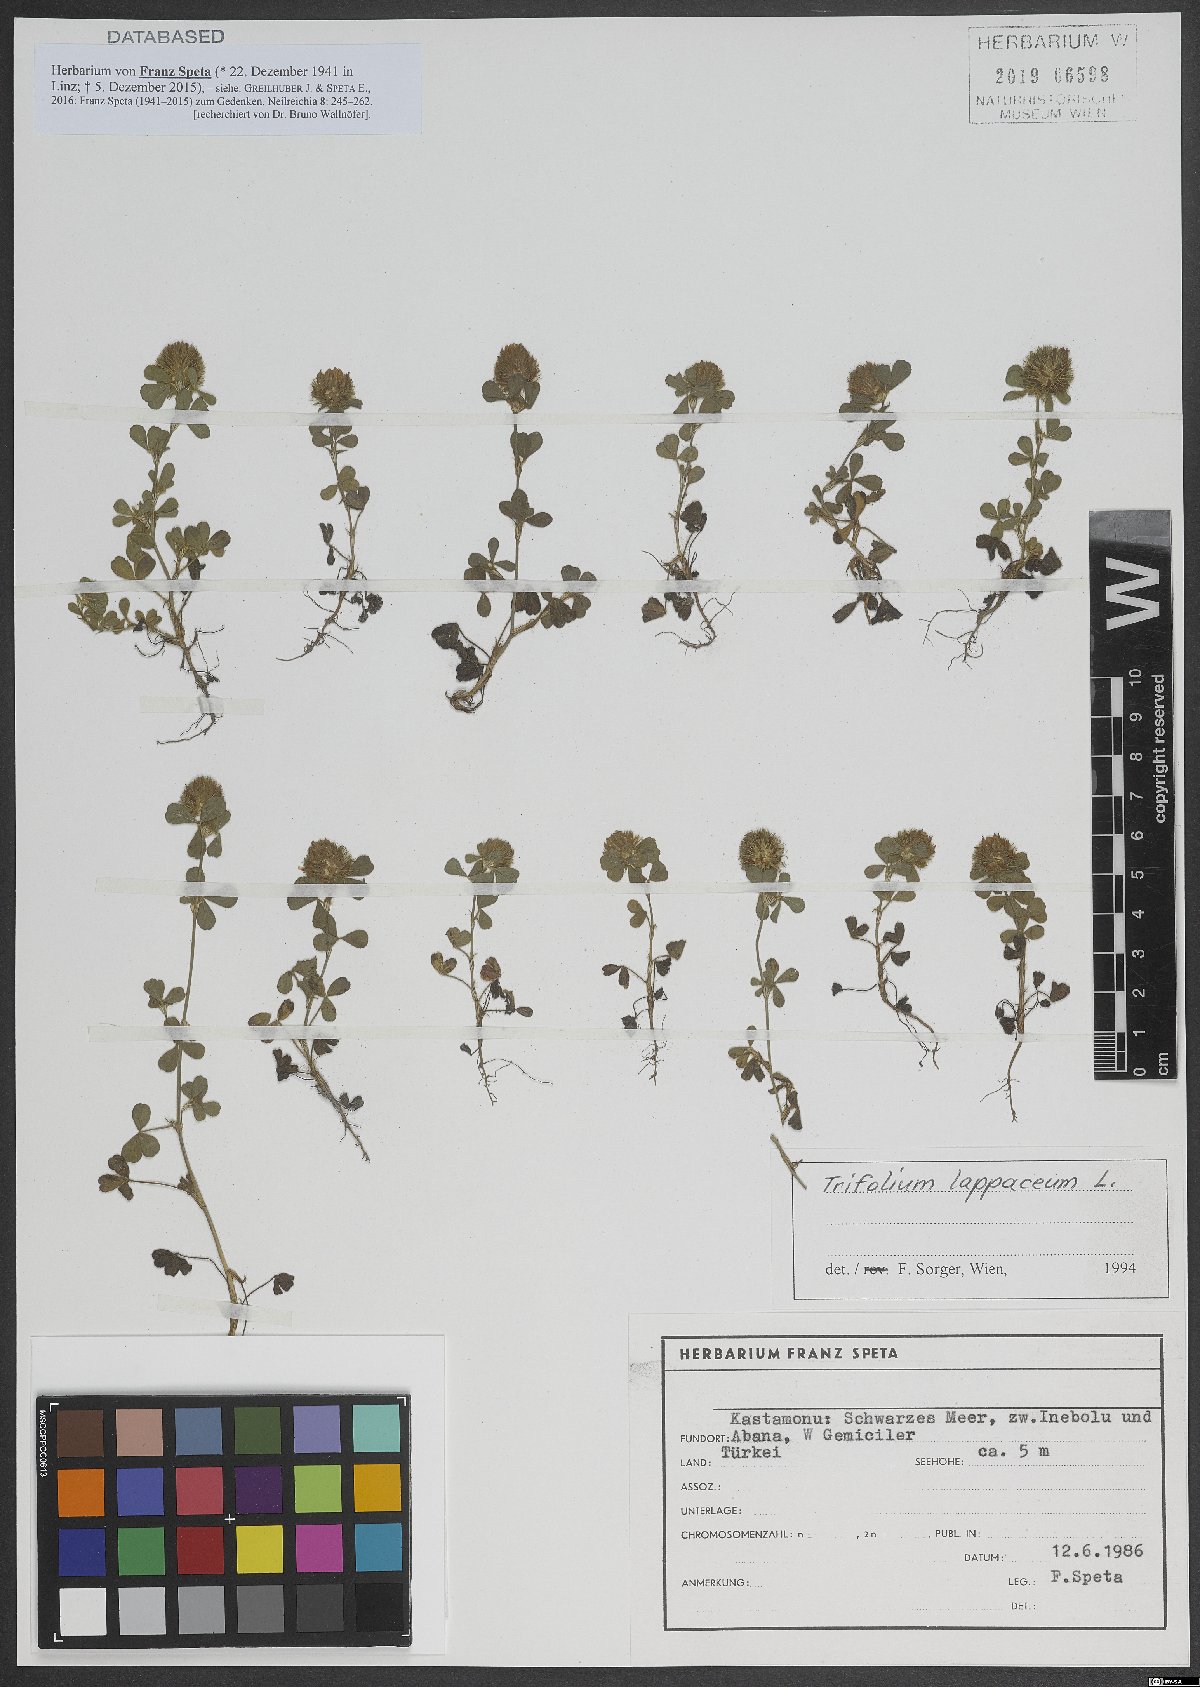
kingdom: Plantae
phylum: Tracheophyta
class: Magnoliopsida
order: Fabales
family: Fabaceae
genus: Trifolium
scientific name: Trifolium lappaceum
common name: Bur clover
